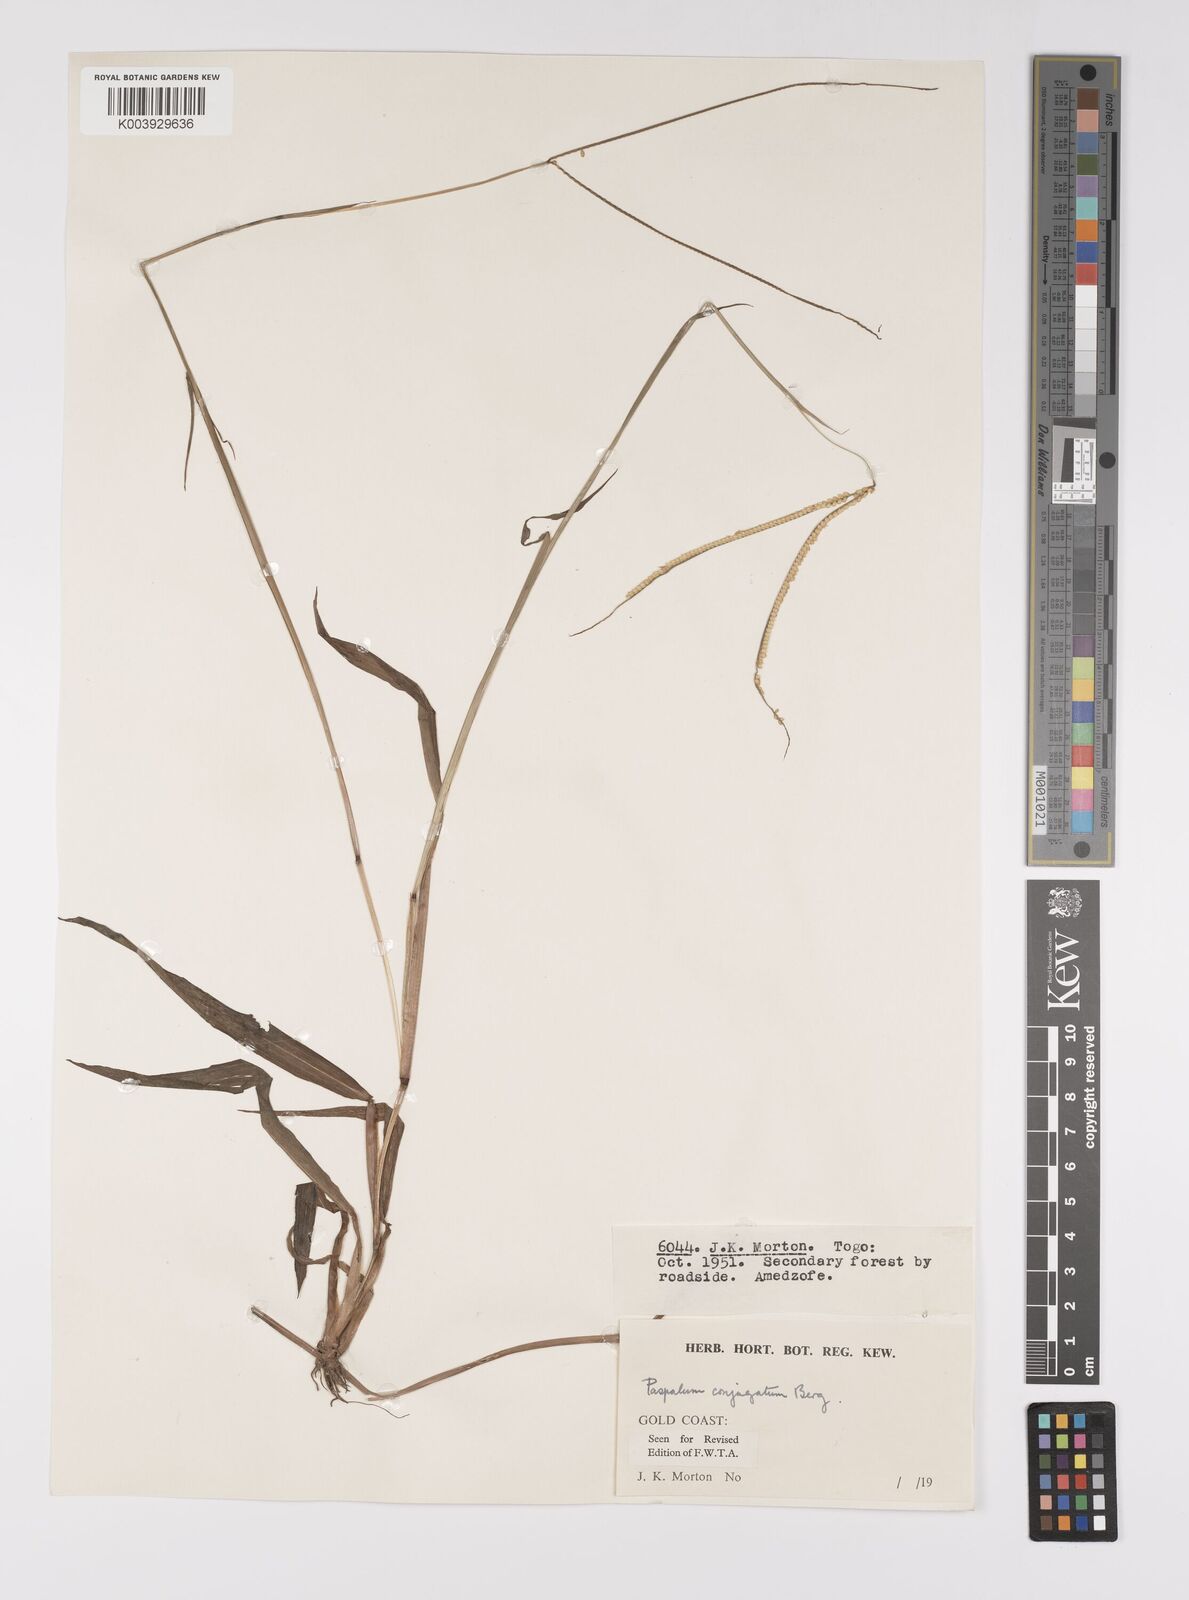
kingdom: Plantae
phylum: Tracheophyta
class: Liliopsida
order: Poales
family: Poaceae
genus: Paspalum
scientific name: Paspalum conjugatum
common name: Hilograss
